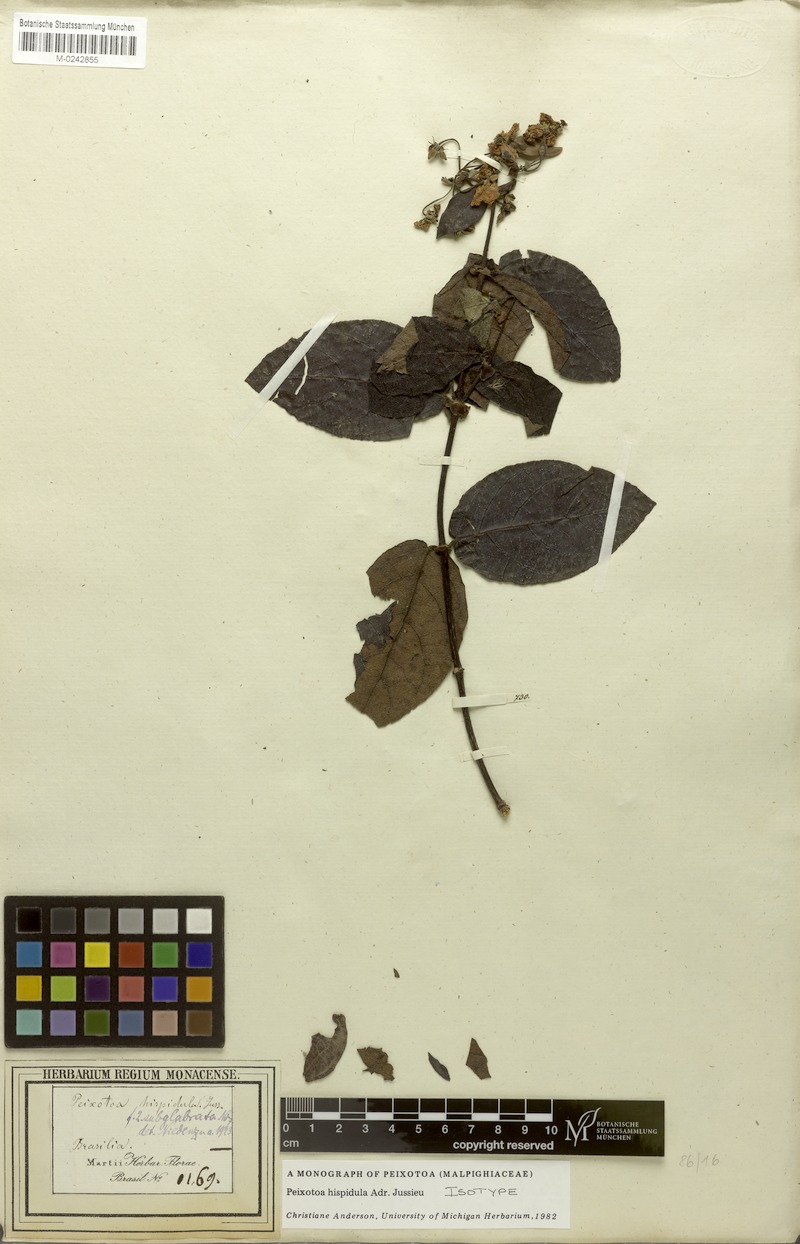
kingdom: Plantae
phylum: Tracheophyta
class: Magnoliopsida
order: Malpighiales
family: Malpighiaceae
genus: Peixotoa
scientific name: Peixotoa hispidula
